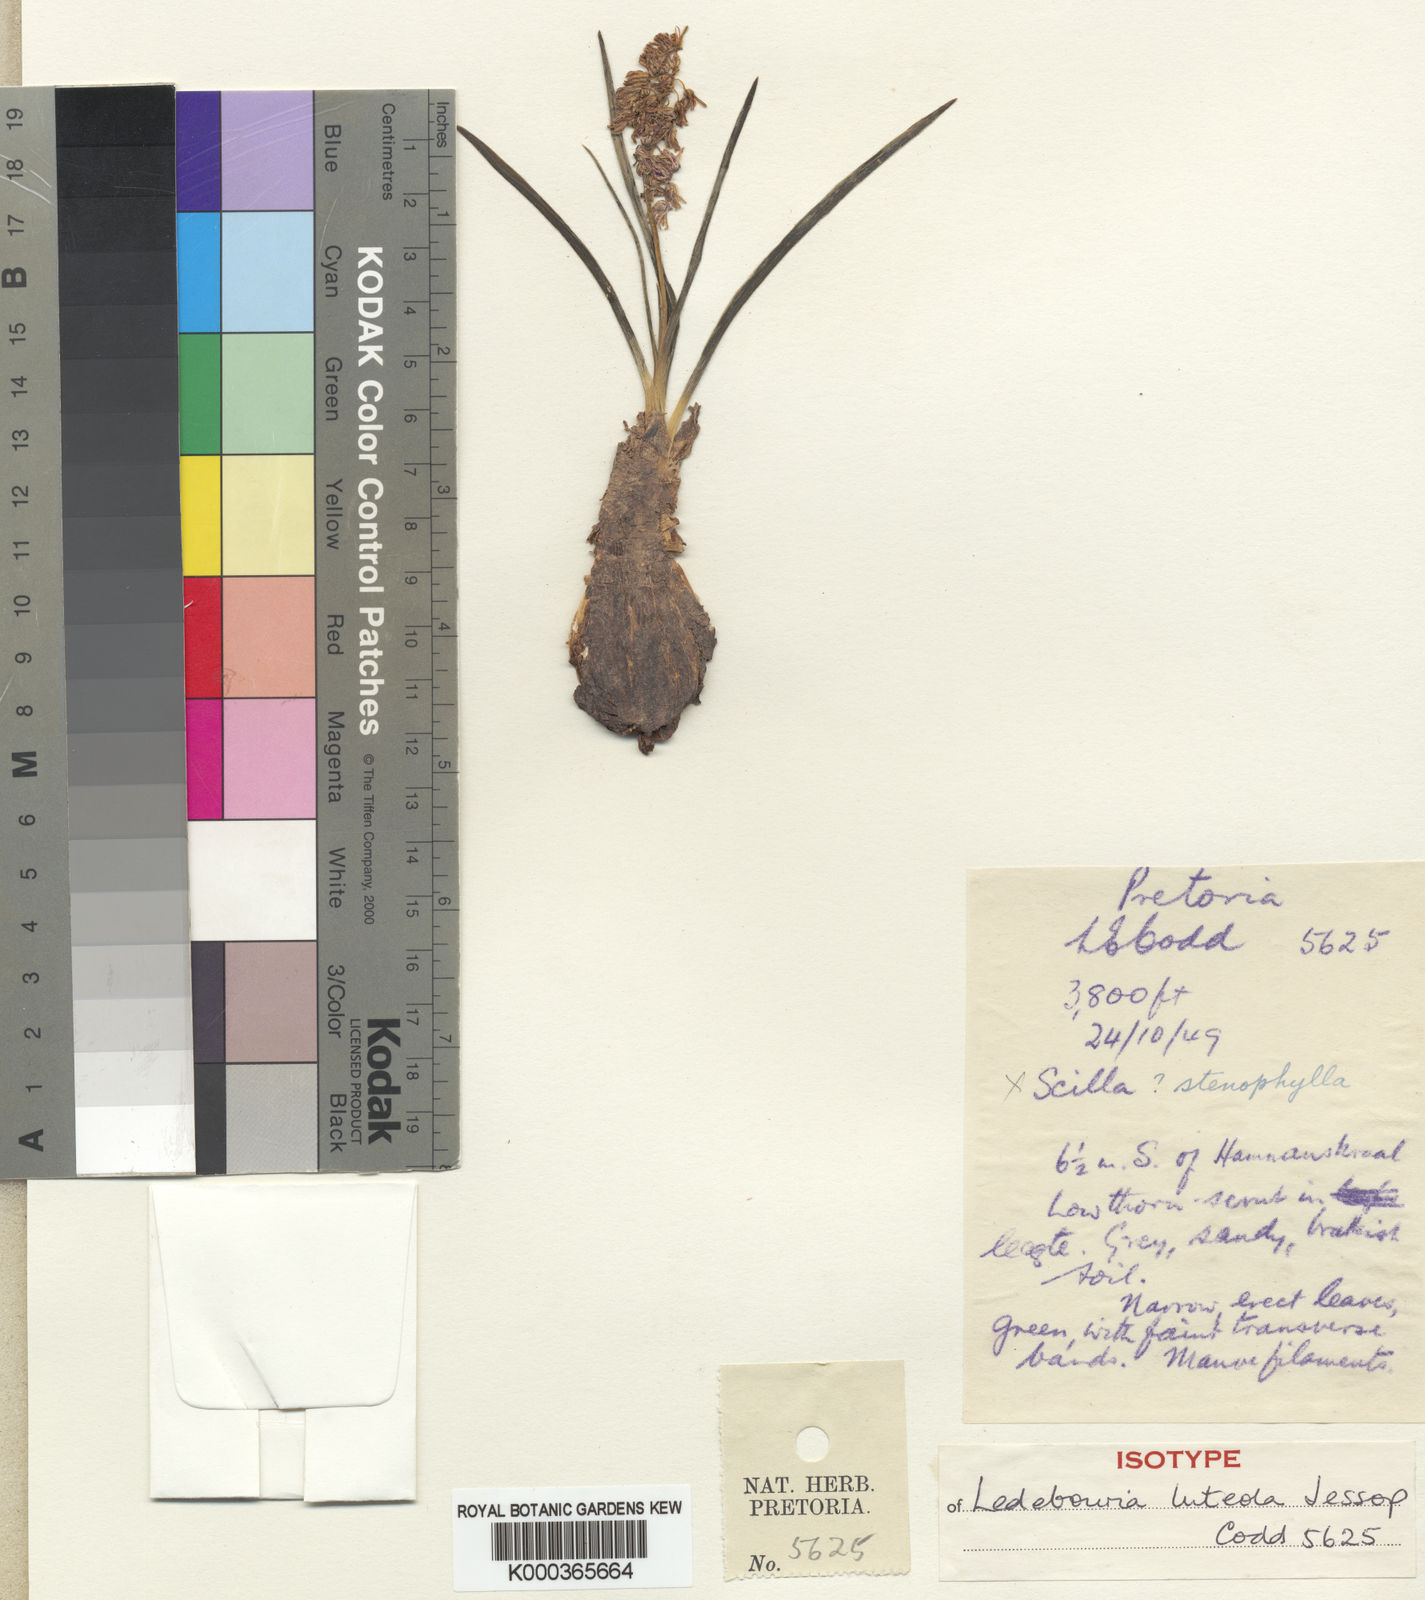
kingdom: Plantae
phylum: Tracheophyta
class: Liliopsida
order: Asparagales
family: Asparagaceae
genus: Ledebouria
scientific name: Ledebouria luteola
